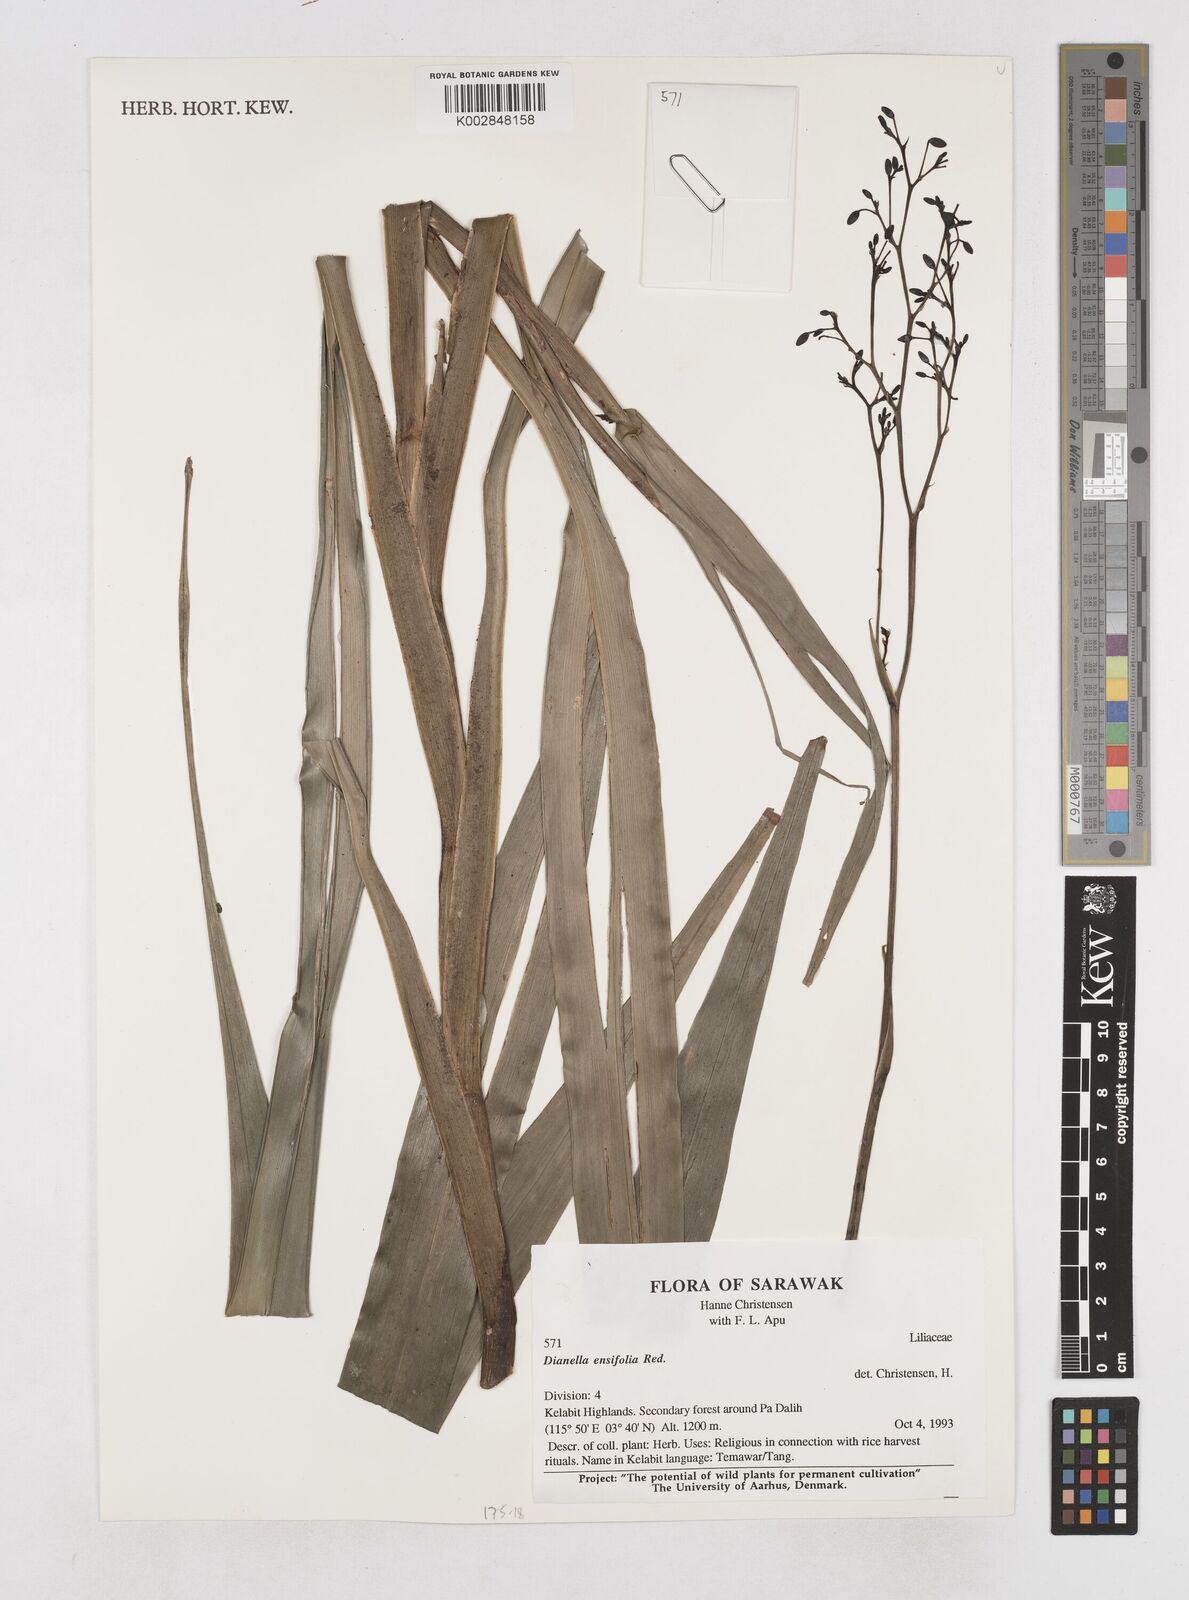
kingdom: Plantae
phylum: Tracheophyta
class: Liliopsida
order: Asparagales
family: Asphodelaceae
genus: Dianella
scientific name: Dianella ensifolia
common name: New zealand lilyplant
